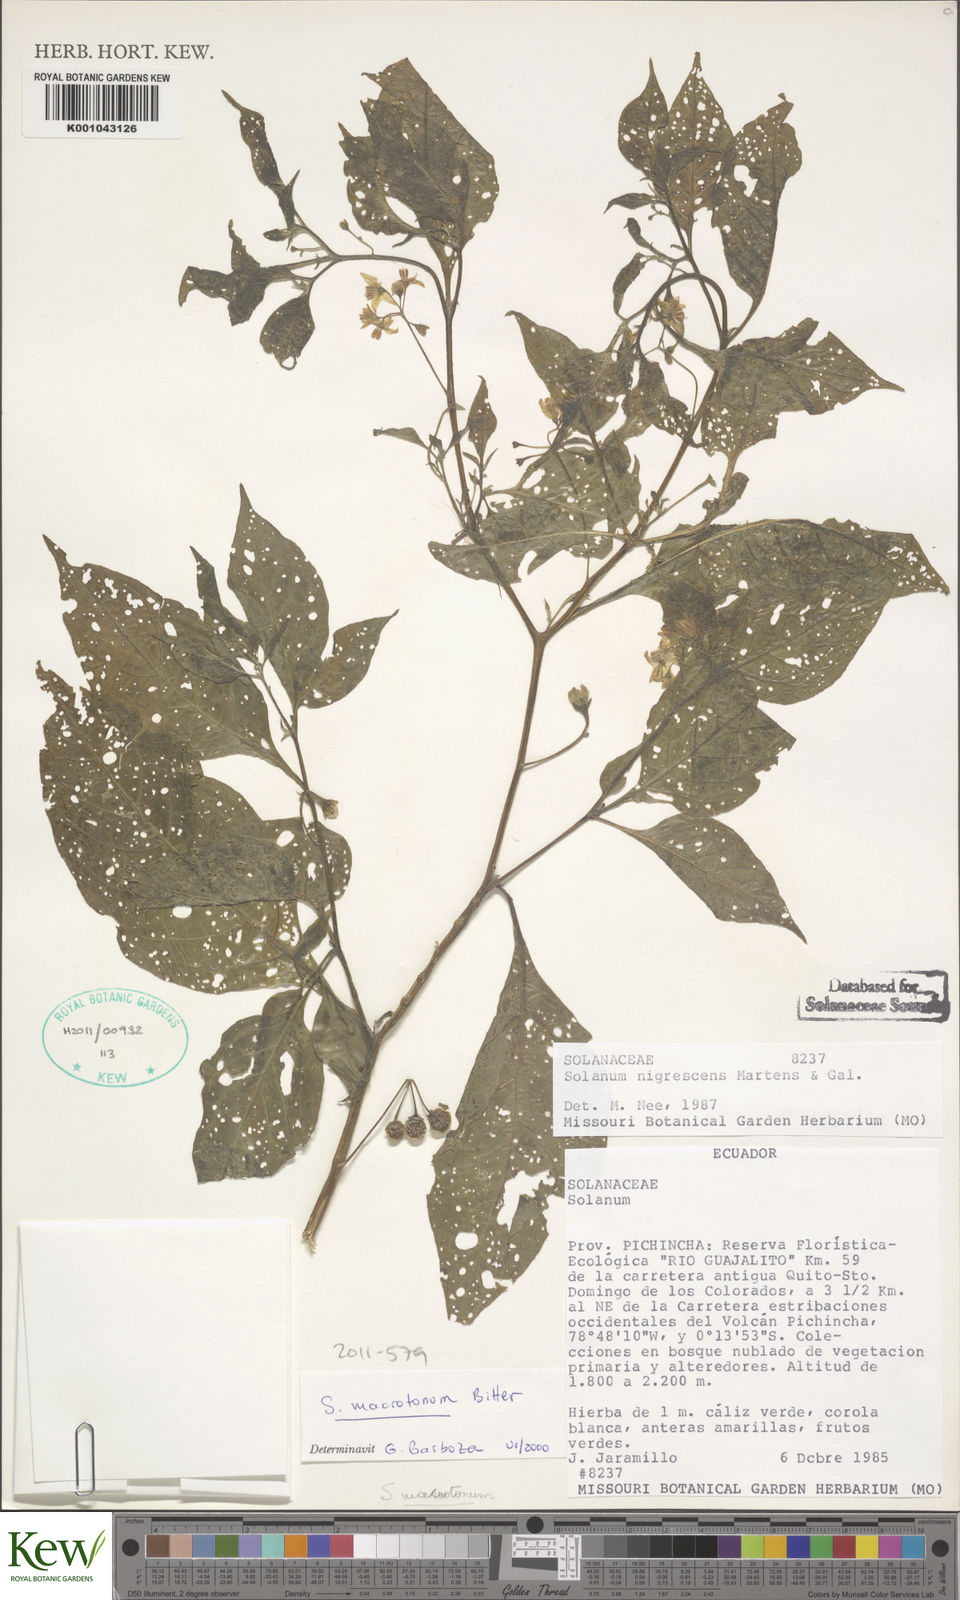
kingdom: Plantae
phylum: Tracheophyta
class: Magnoliopsida
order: Solanales
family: Solanaceae
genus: Solanum
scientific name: Solanum nigrescens
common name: Divine nightshade
